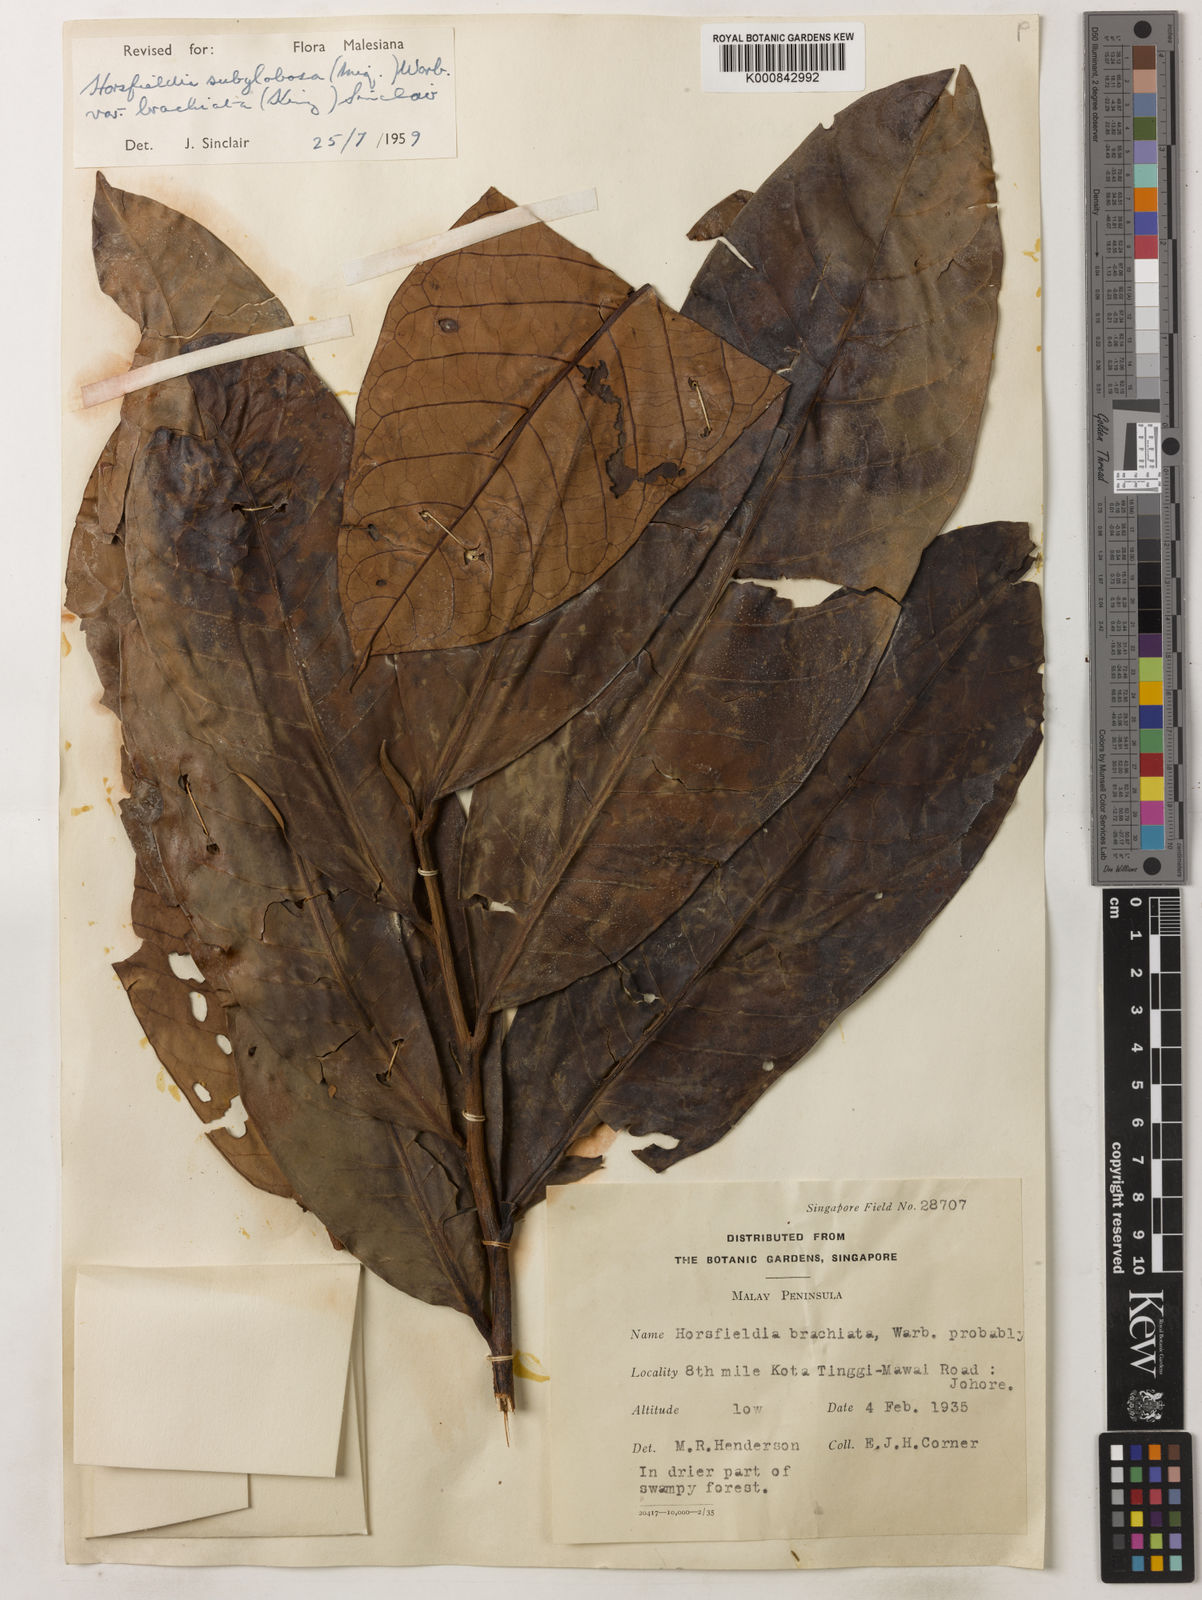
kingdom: Plantae
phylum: Tracheophyta
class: Magnoliopsida
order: Magnoliales
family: Myristicaceae
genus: Horsfieldia
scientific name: Horsfieldia brachiata
